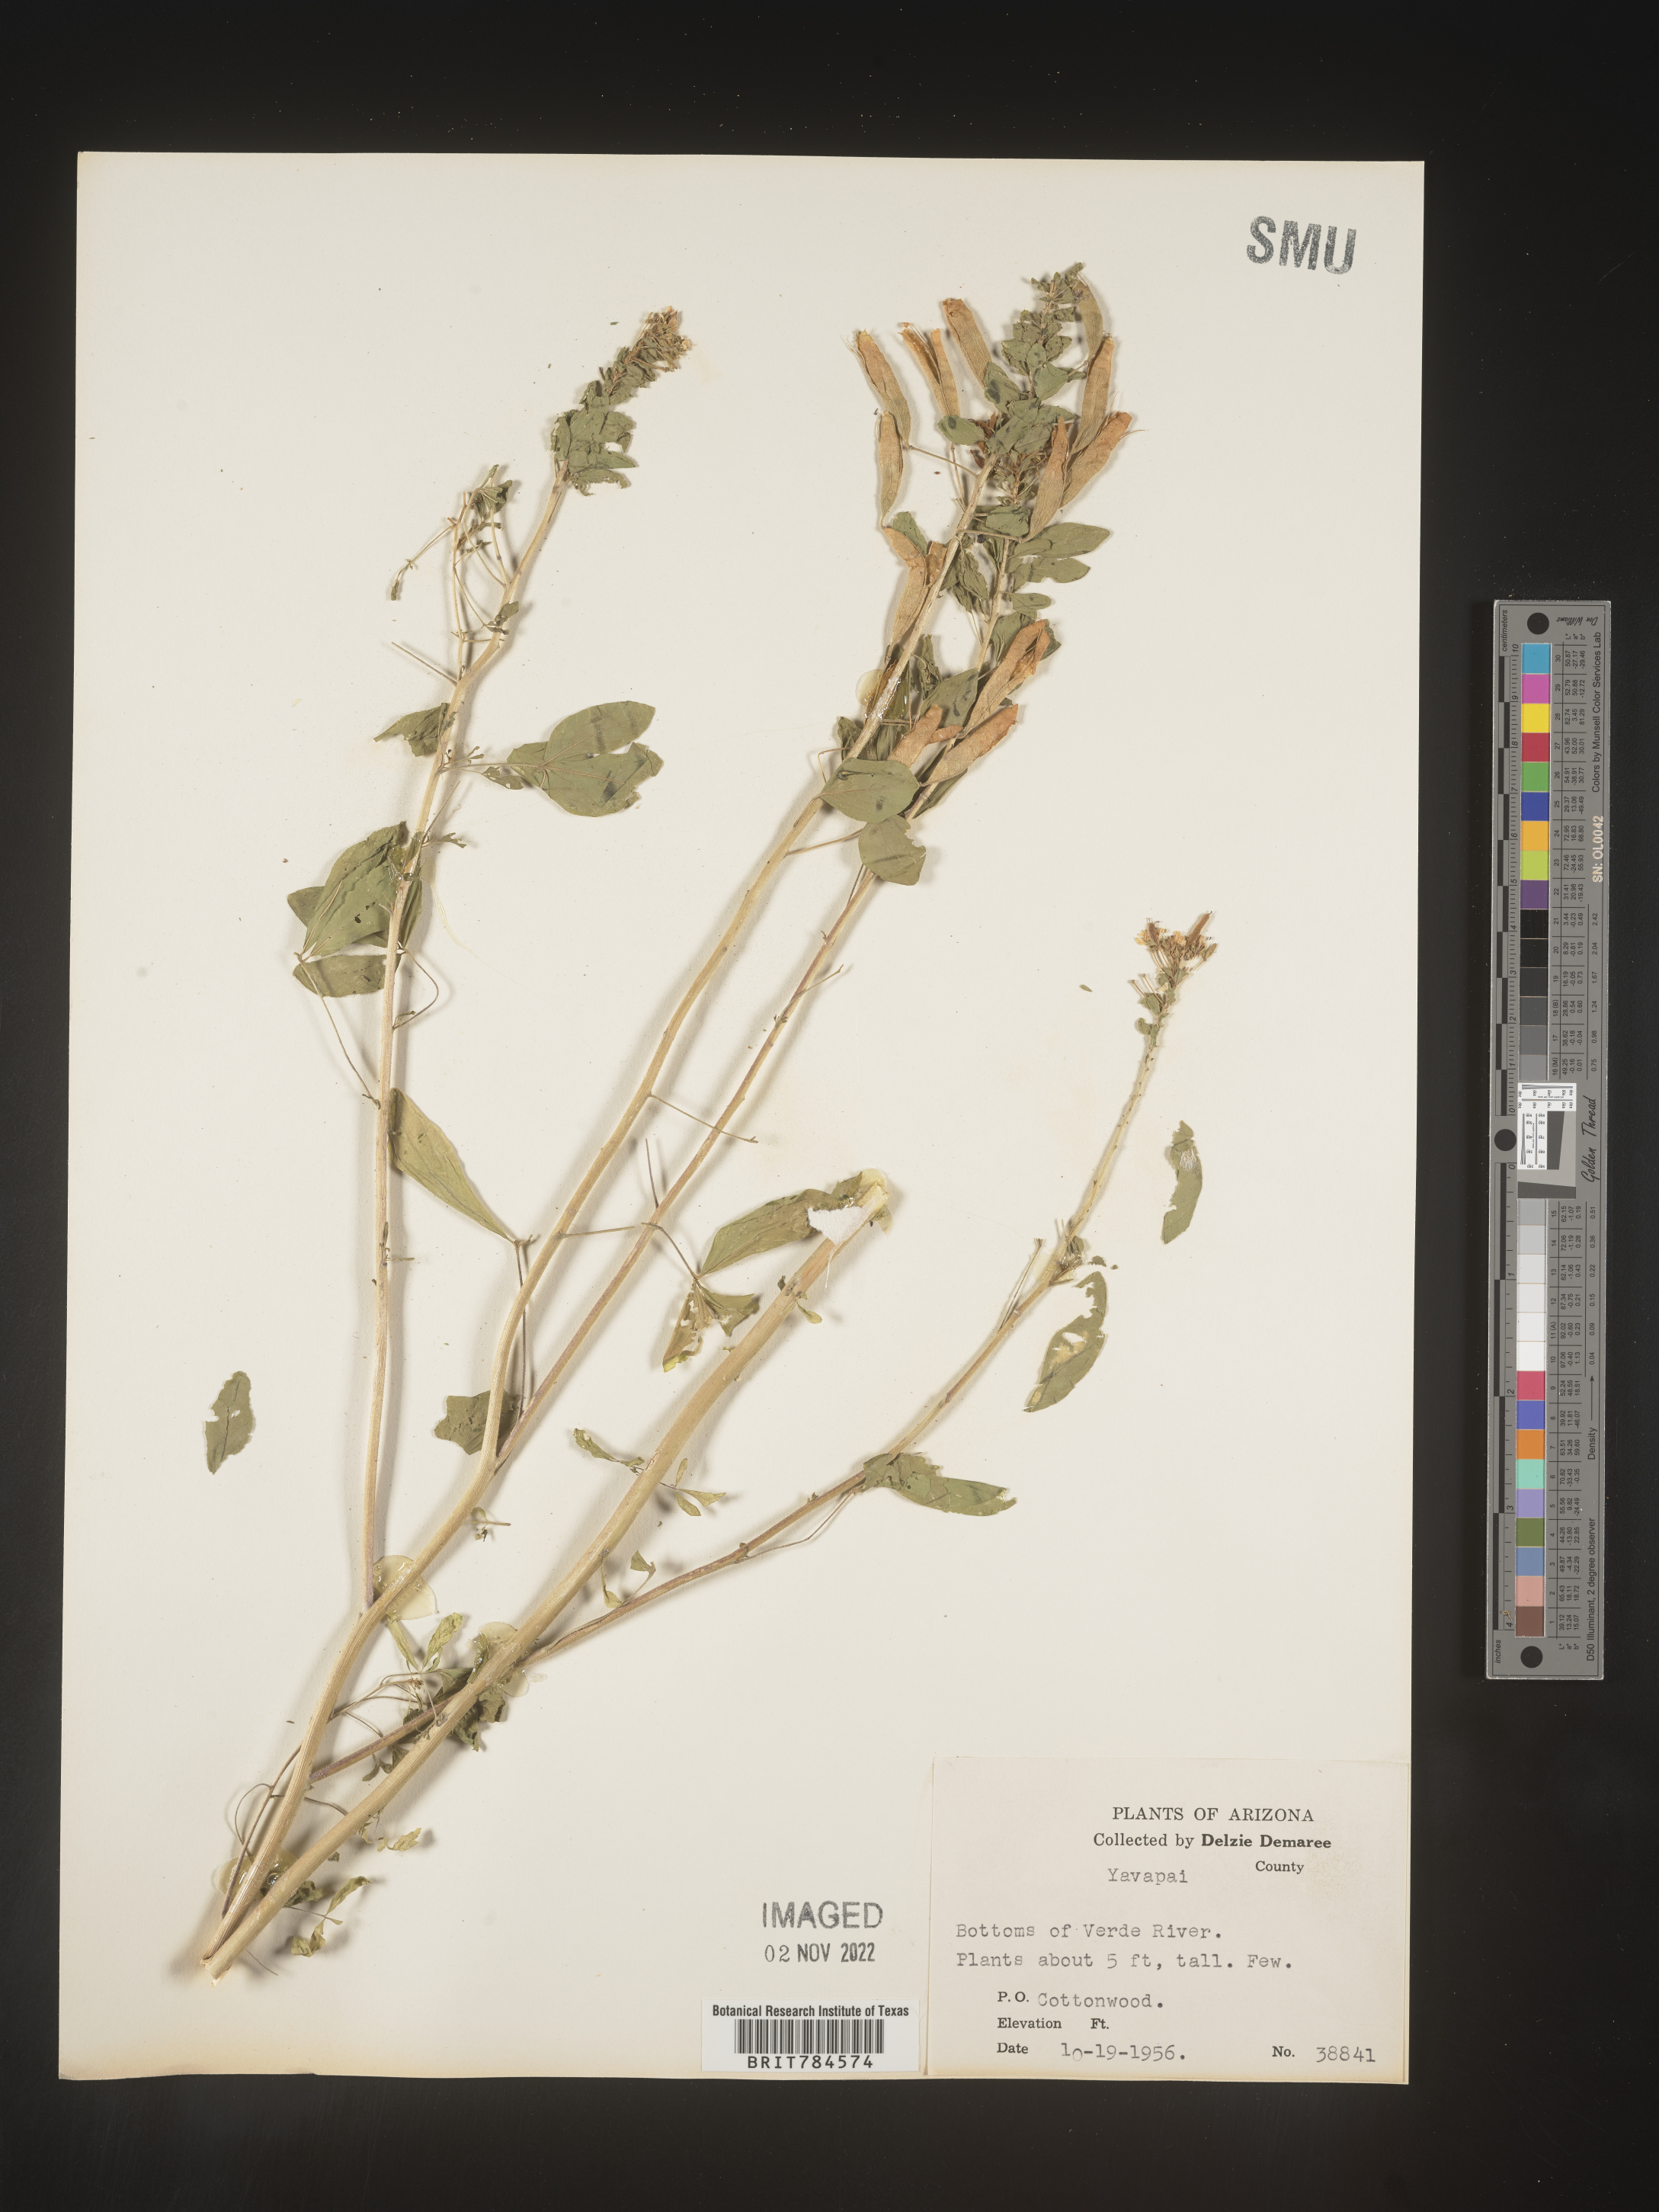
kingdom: Plantae
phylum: Tracheophyta
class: Magnoliopsida
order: Brassicales
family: Cleomaceae
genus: Polanisia
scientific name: Polanisia
